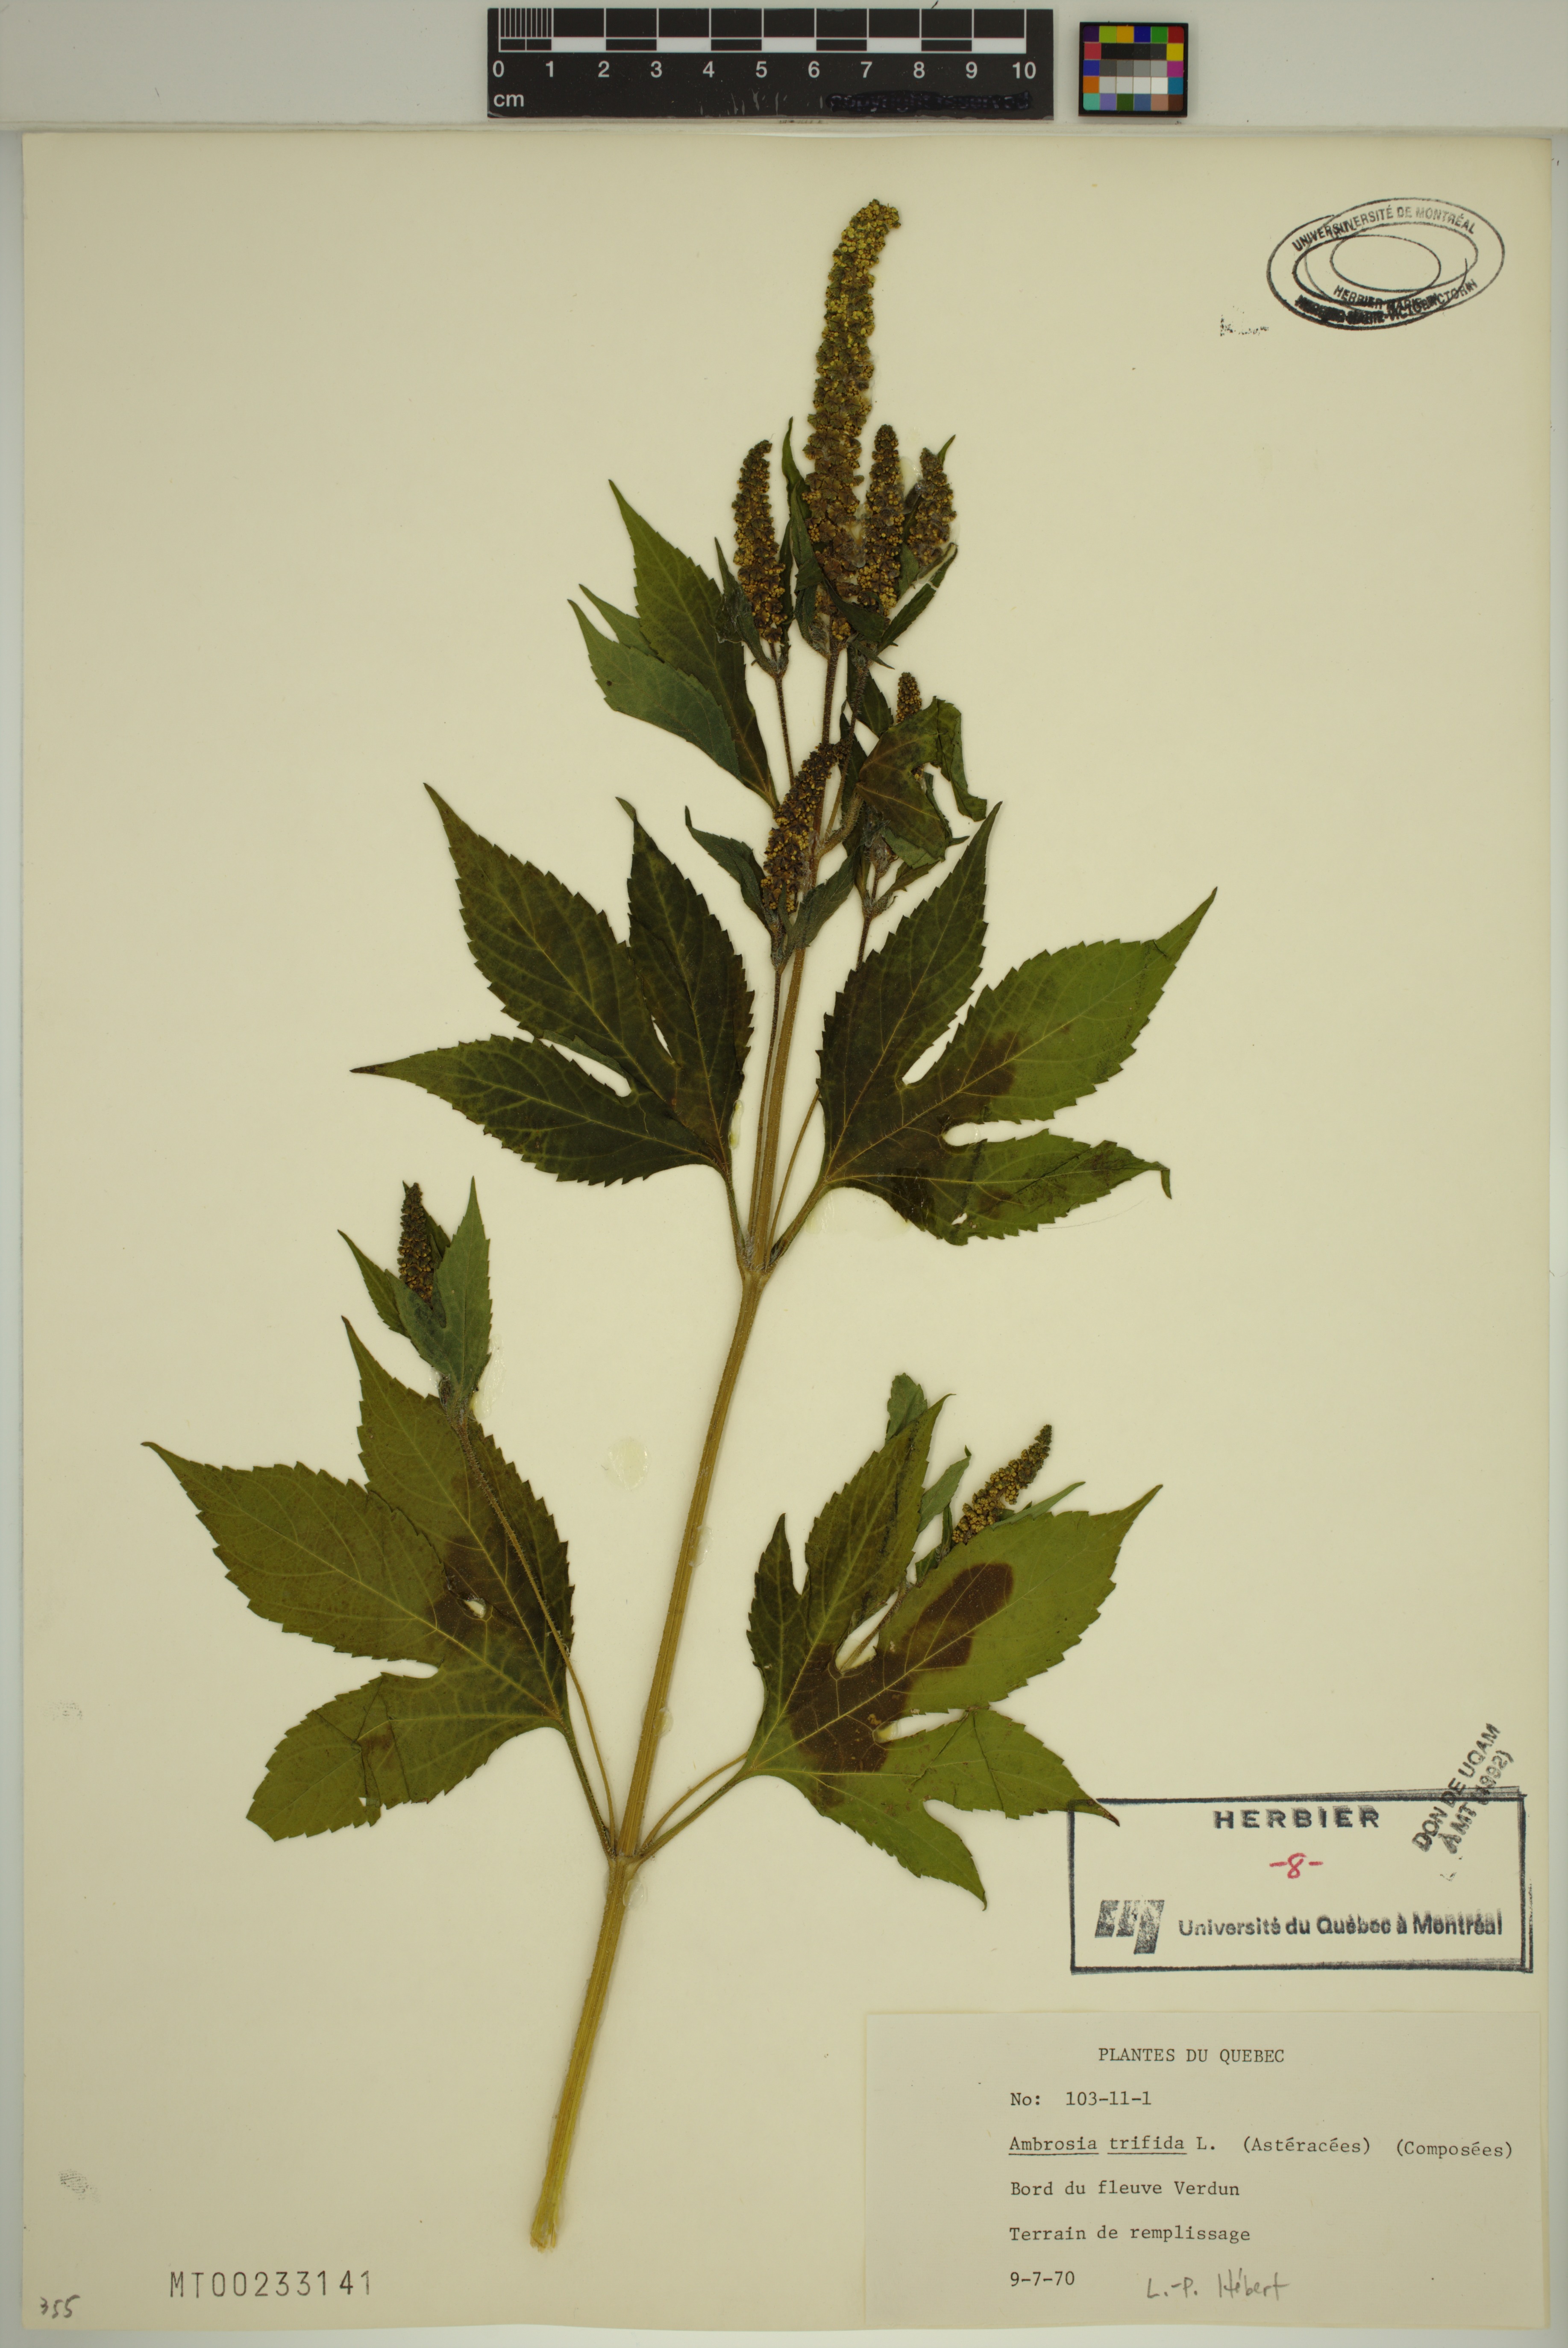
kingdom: Plantae
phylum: Tracheophyta
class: Magnoliopsida
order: Asterales
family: Asteraceae
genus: Ambrosia
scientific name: Ambrosia trifida
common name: Giant ragweed
